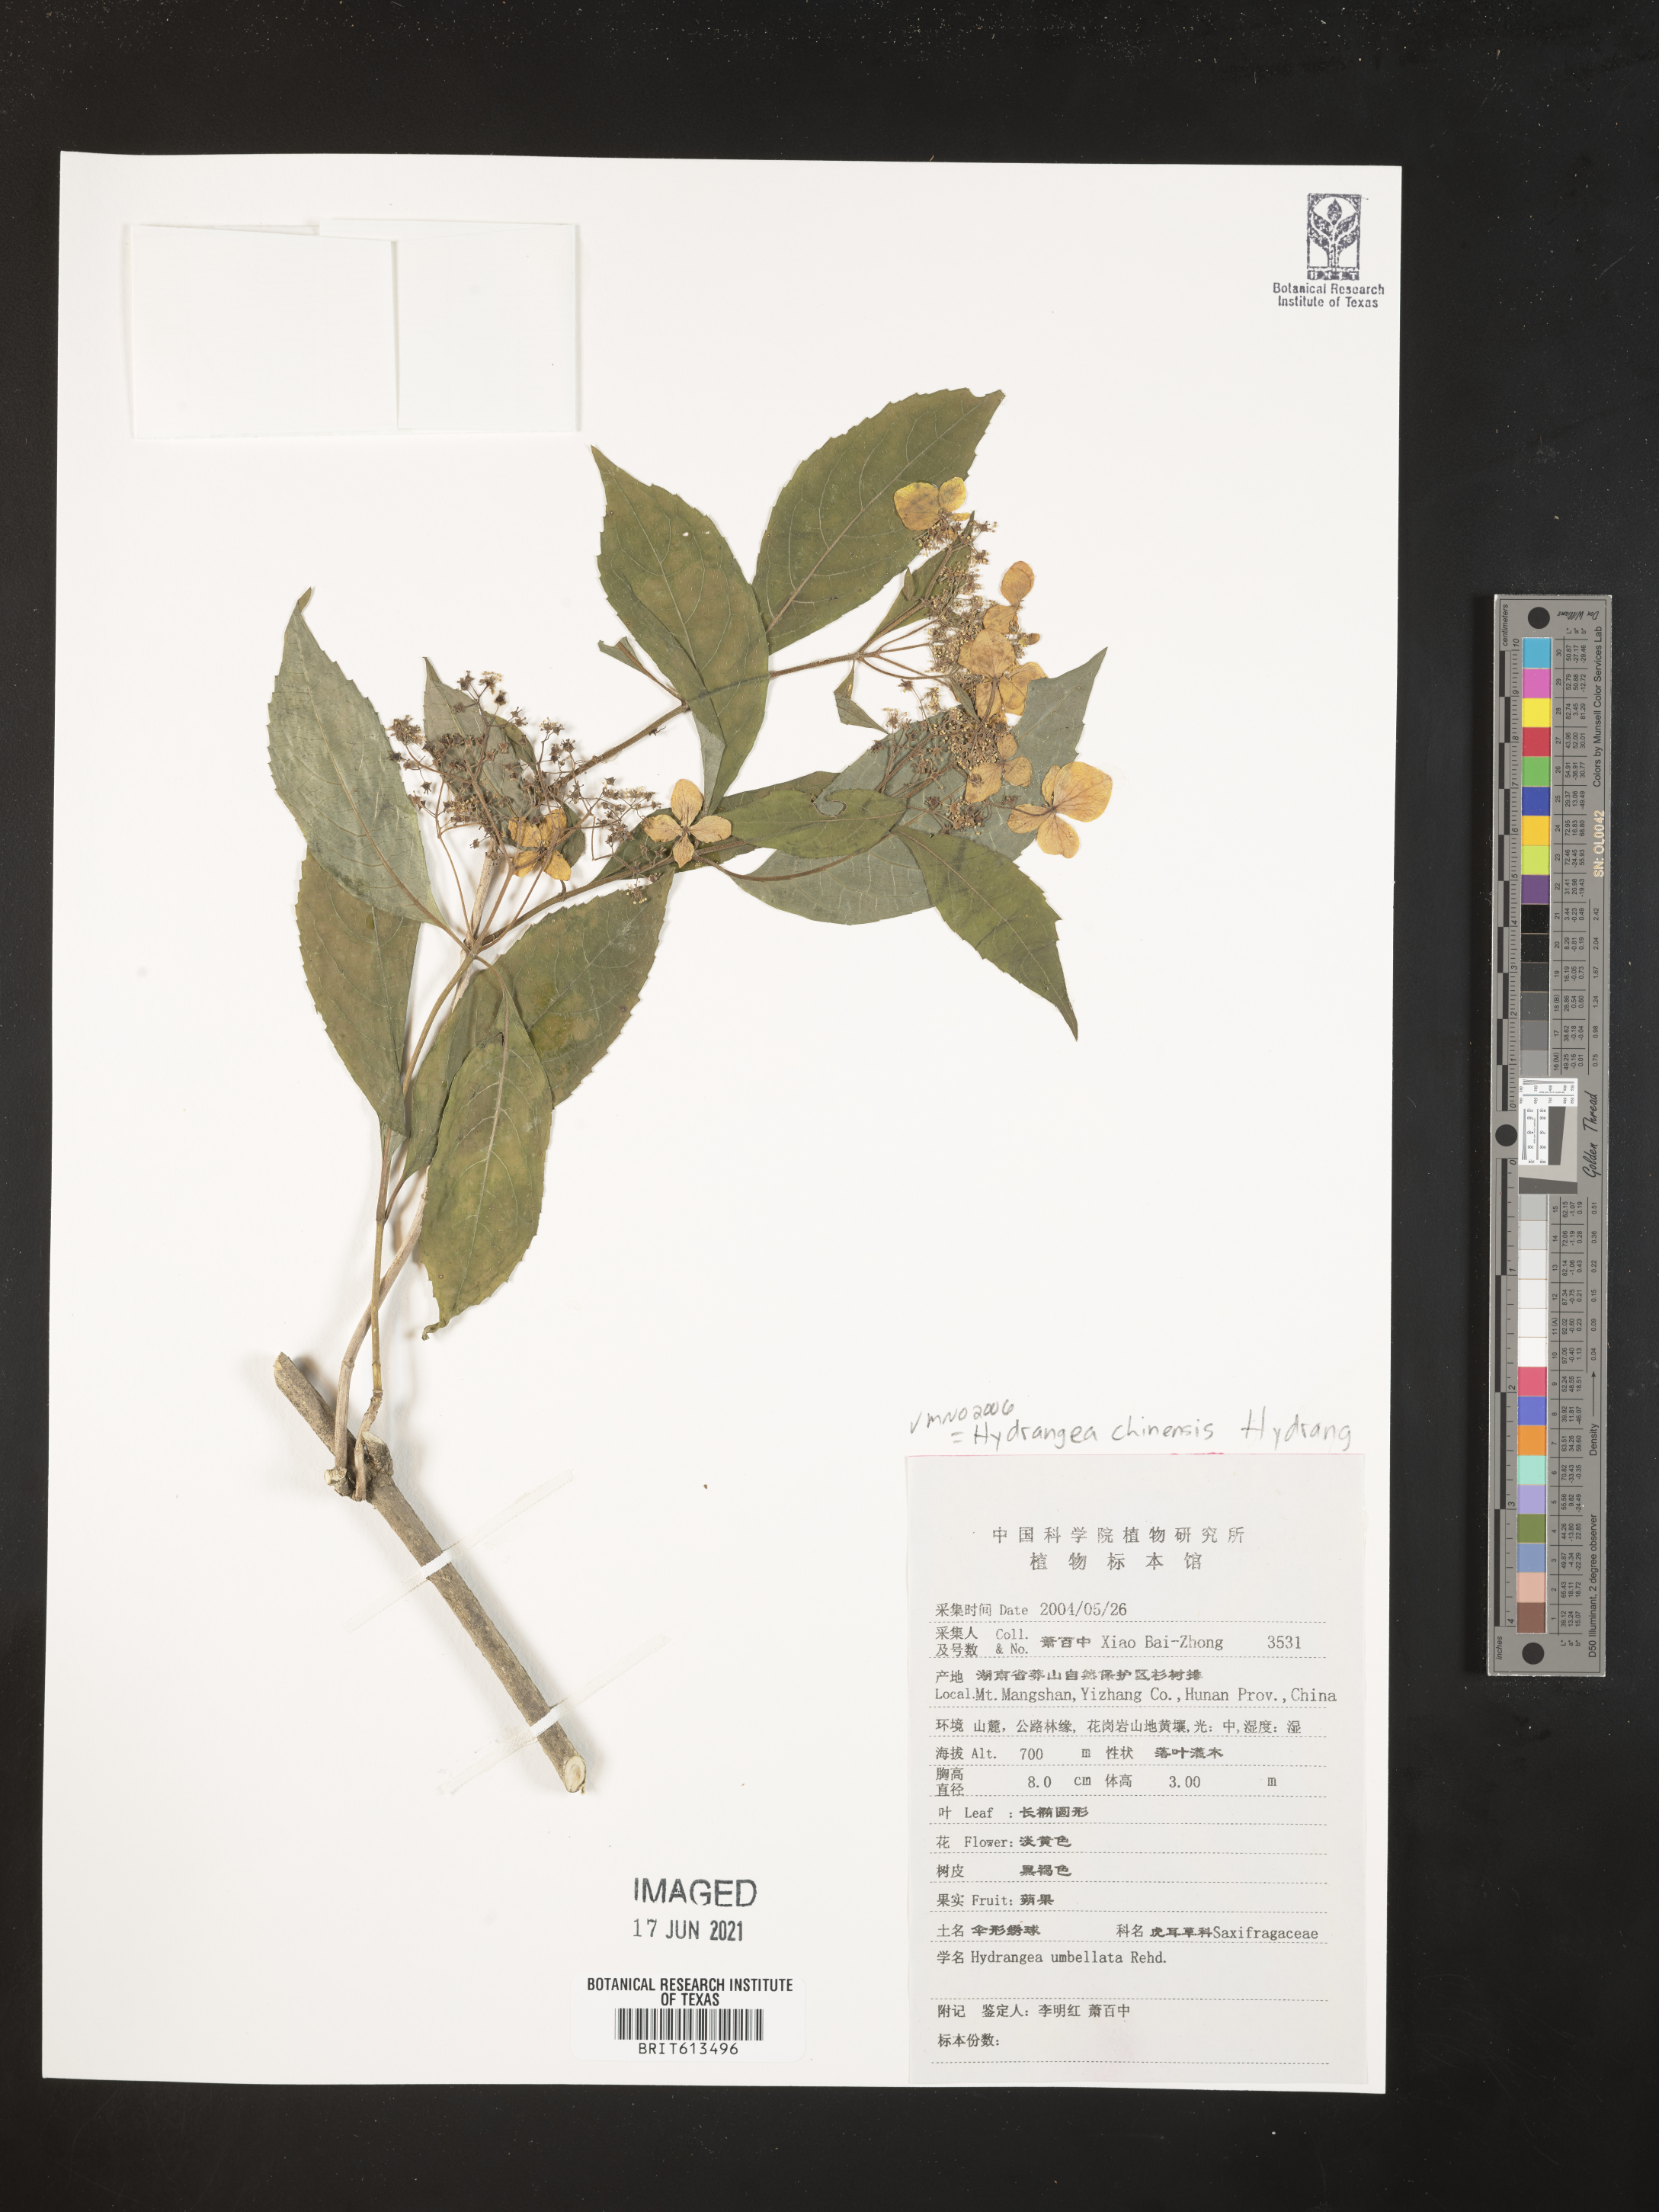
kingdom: Plantae
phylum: Tracheophyta
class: Magnoliopsida
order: Cornales
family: Hydrangeaceae
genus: Hydrangea
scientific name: Hydrangea chinensis
